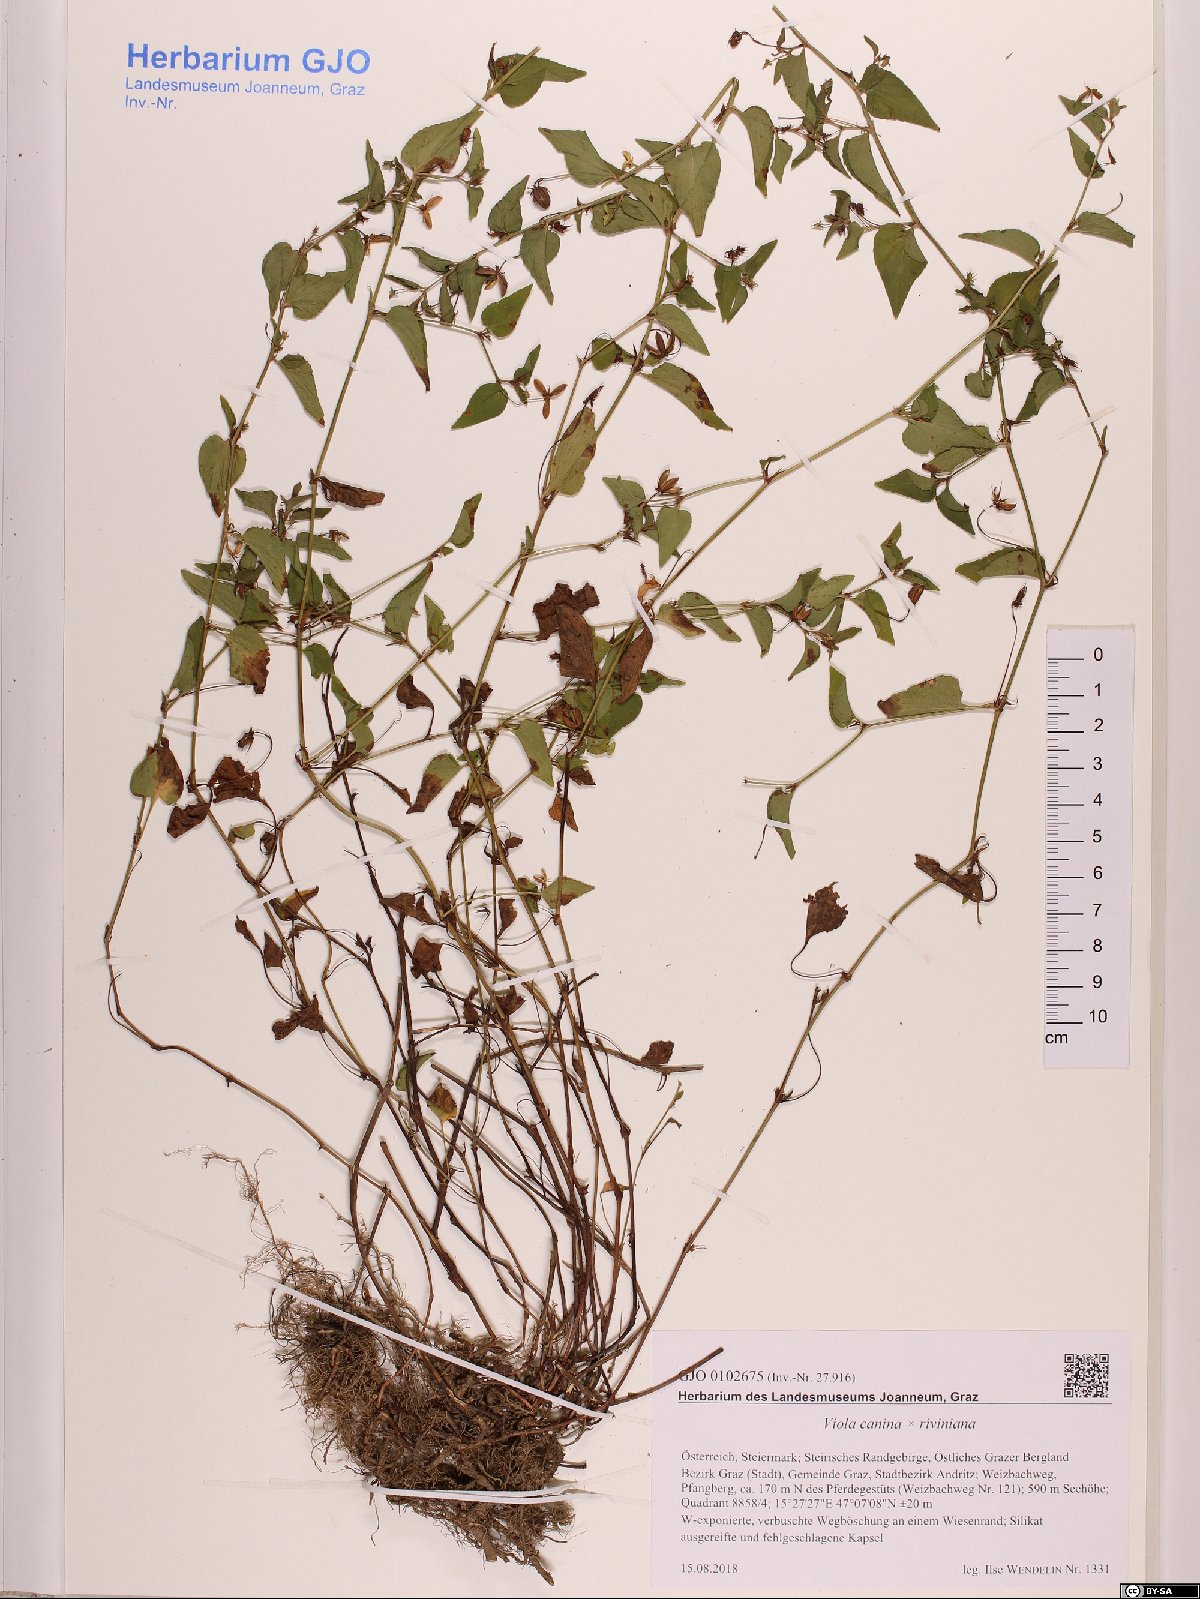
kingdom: Plantae
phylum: Tracheophyta
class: Magnoliopsida
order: Malpighiales
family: Violaceae
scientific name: Violaceae
